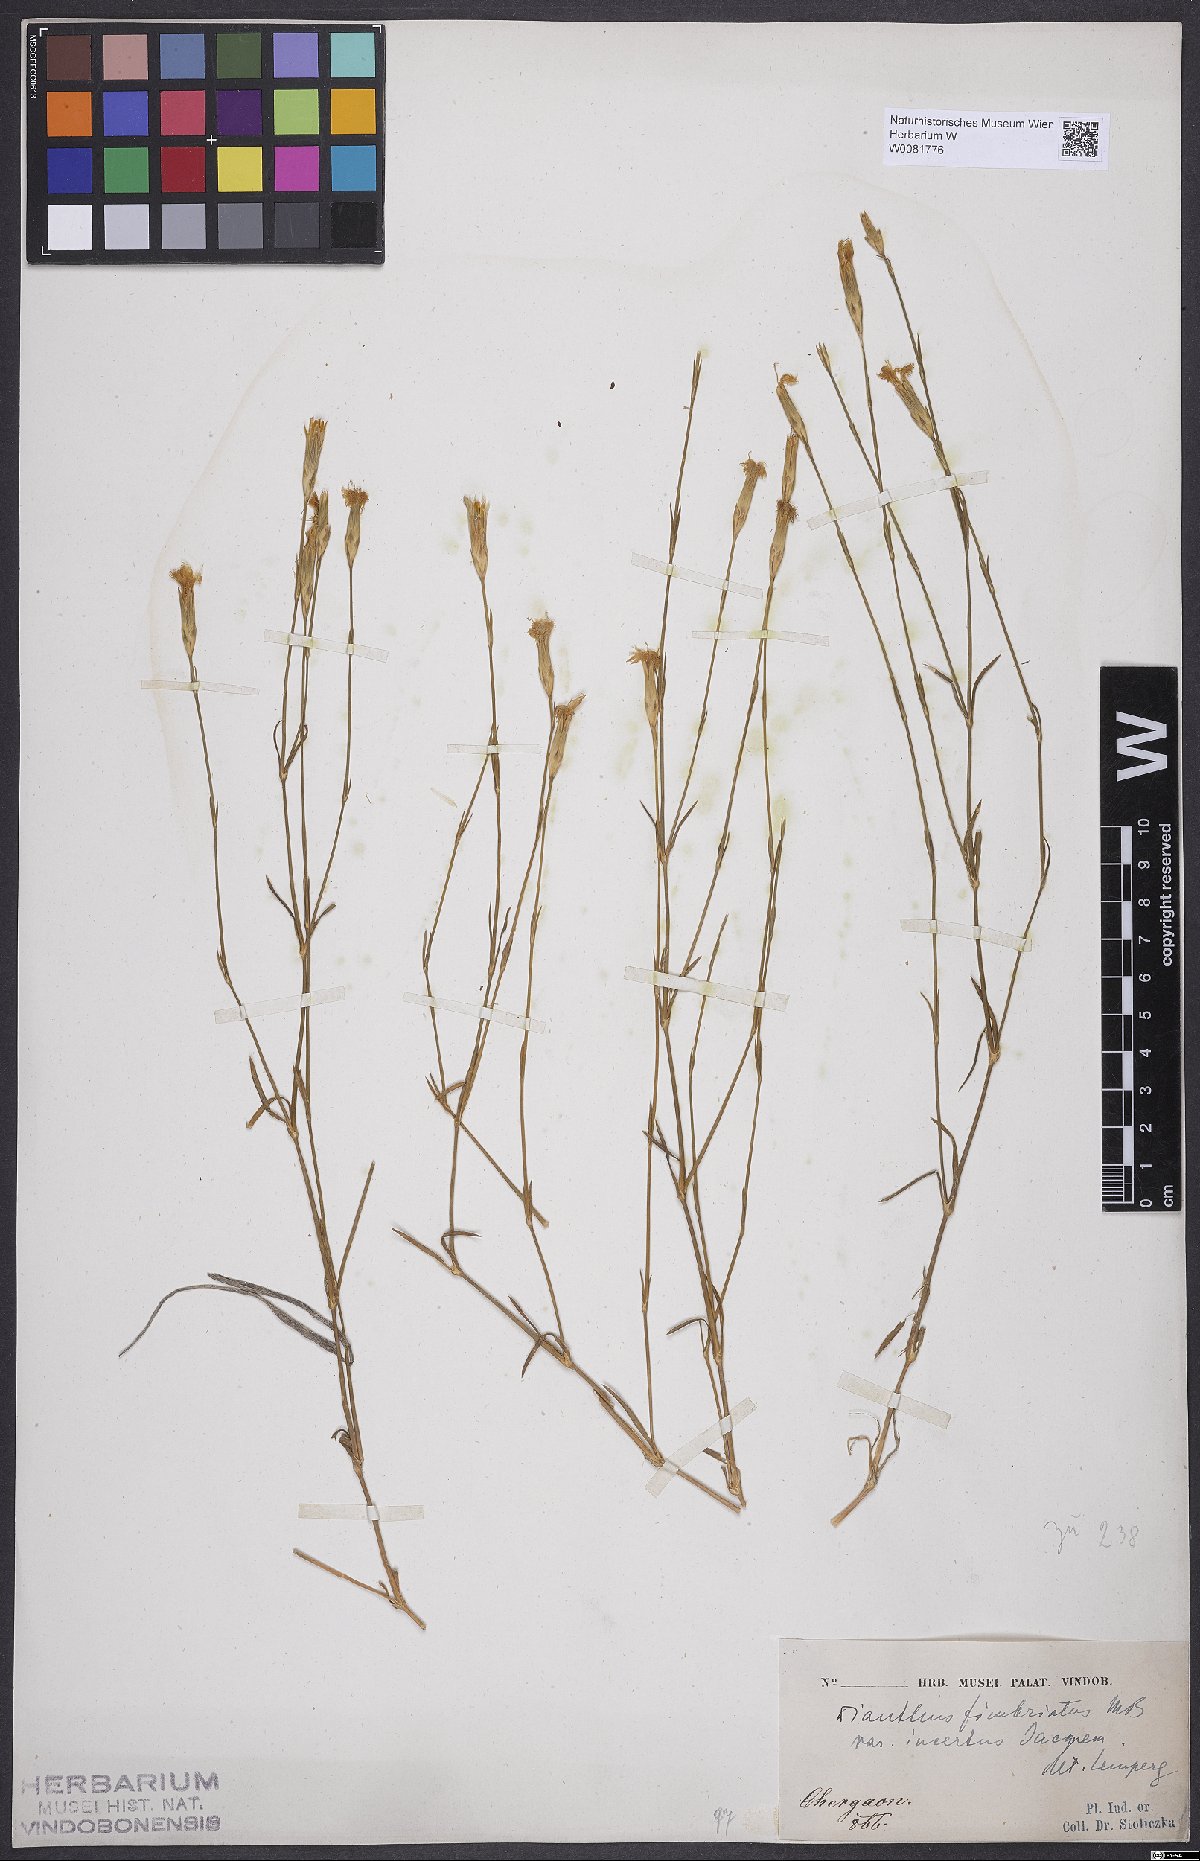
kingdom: Plantae
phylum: Tracheophyta
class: Magnoliopsida
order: Caryophyllales
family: Caryophyllaceae
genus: Dianthus
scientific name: Dianthus broteri
